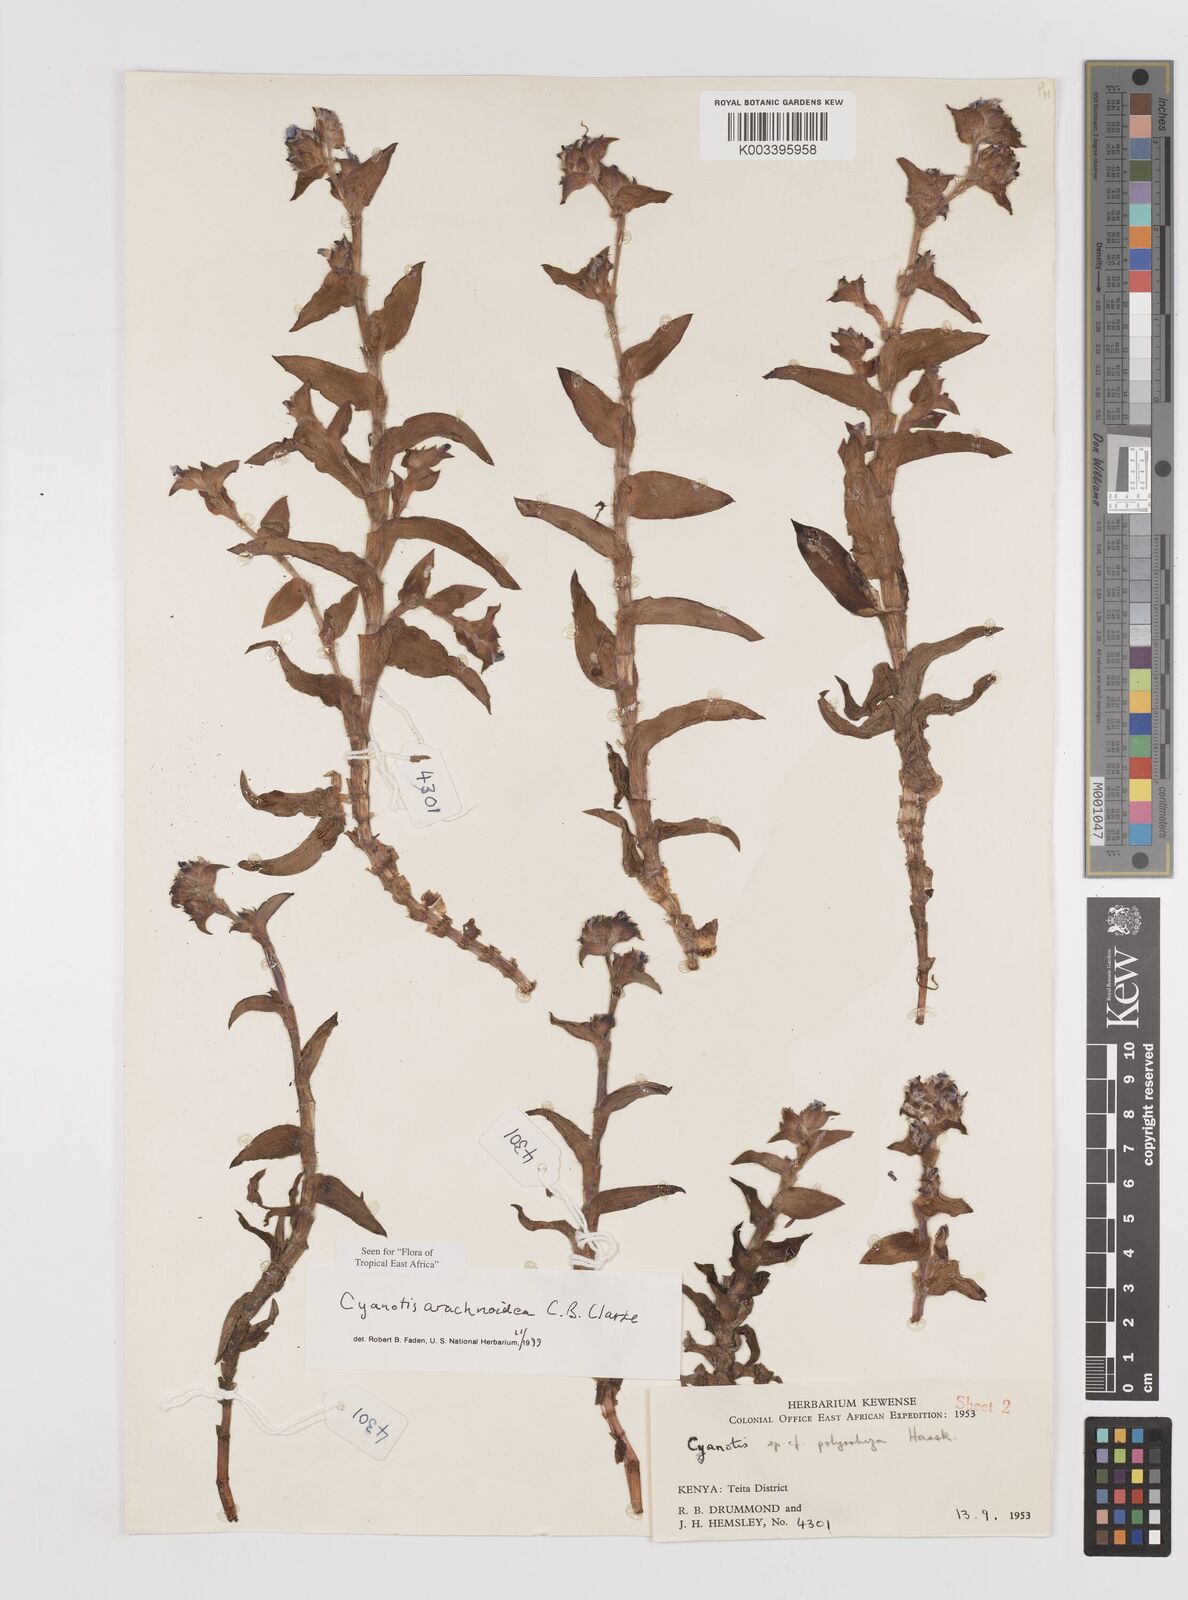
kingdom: Plantae
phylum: Tracheophyta
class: Liliopsida
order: Commelinales
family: Commelinaceae
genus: Cyanotis
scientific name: Cyanotis arachnoidea
